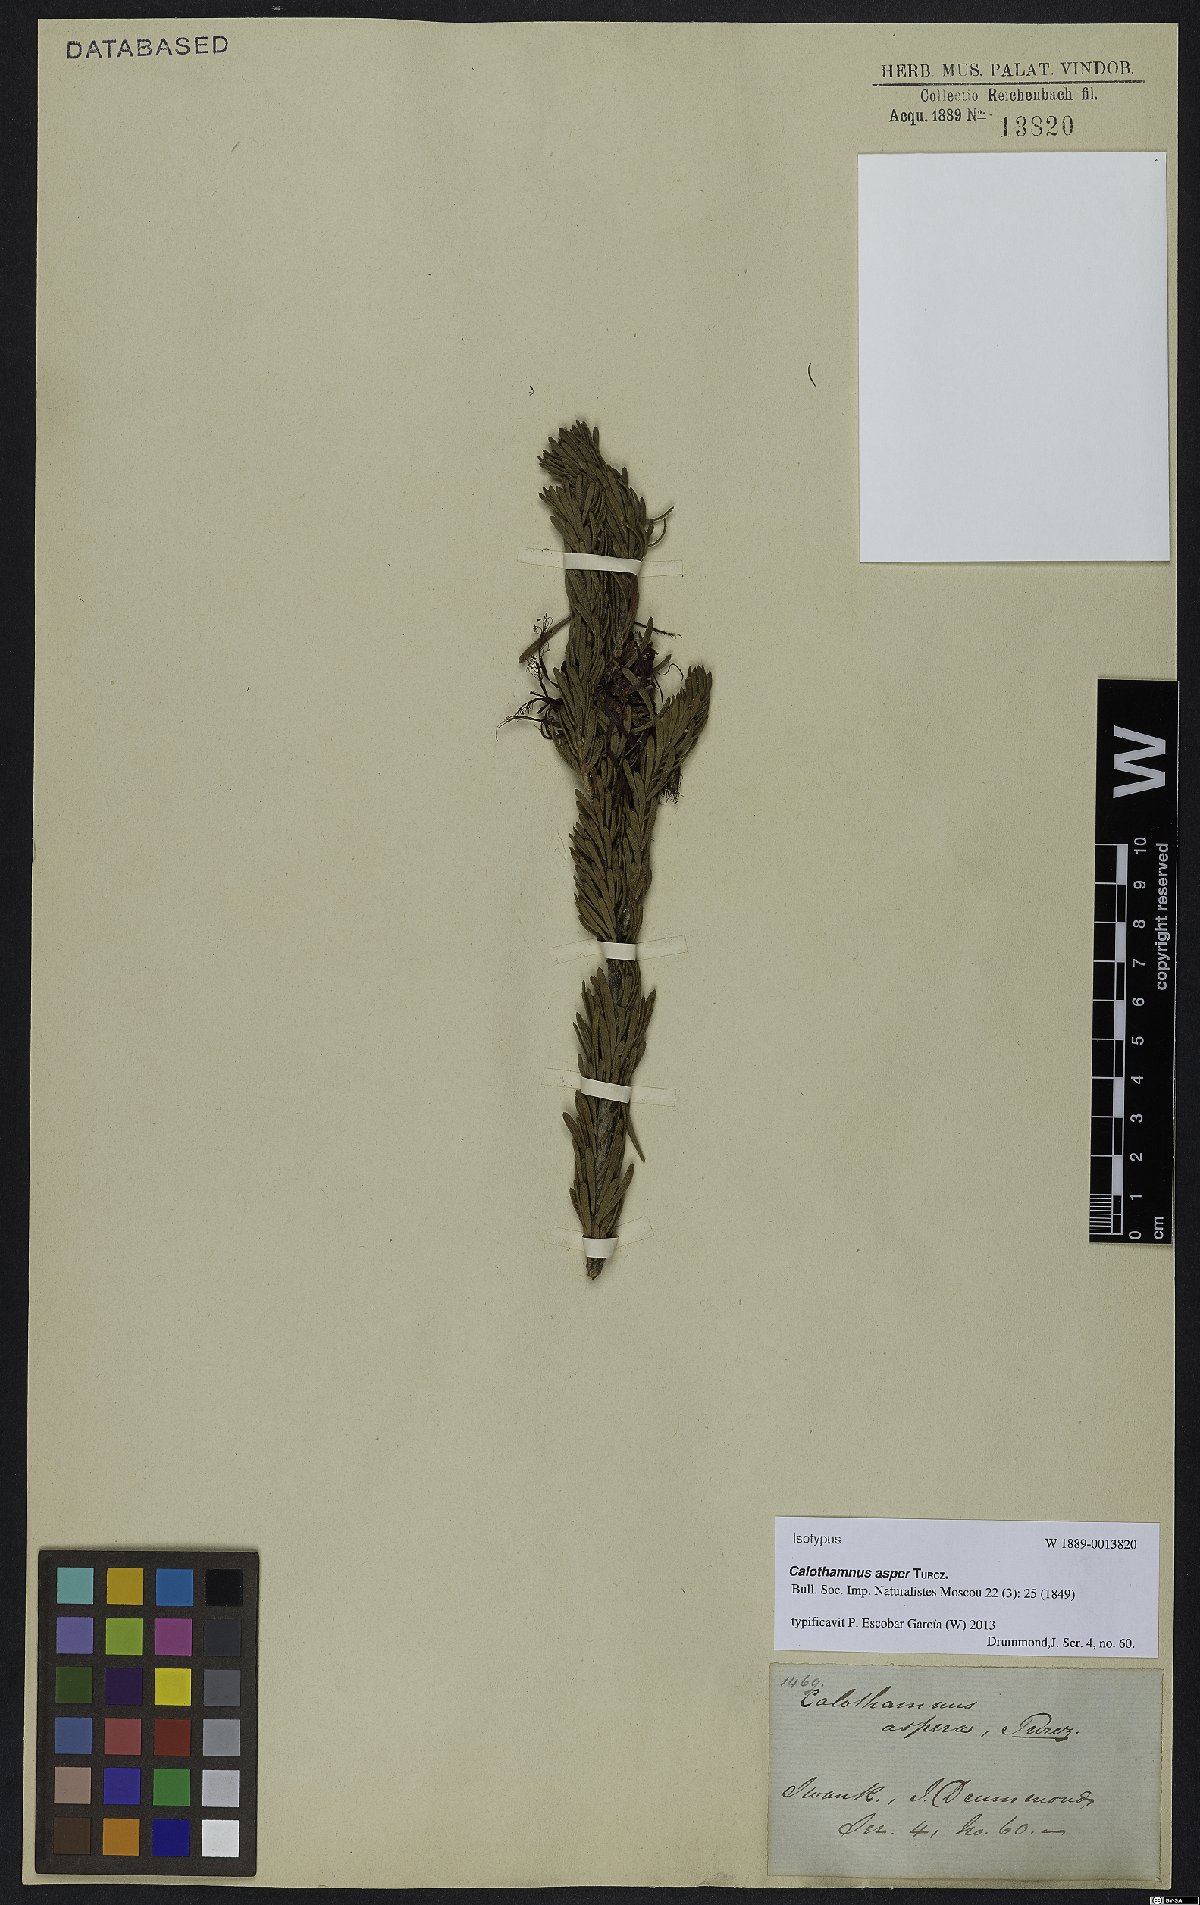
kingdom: Plantae
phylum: Tracheophyta
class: Magnoliopsida
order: Myrtales
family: Myrtaceae
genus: Melaleuca
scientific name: Melaleuca quadrifida
